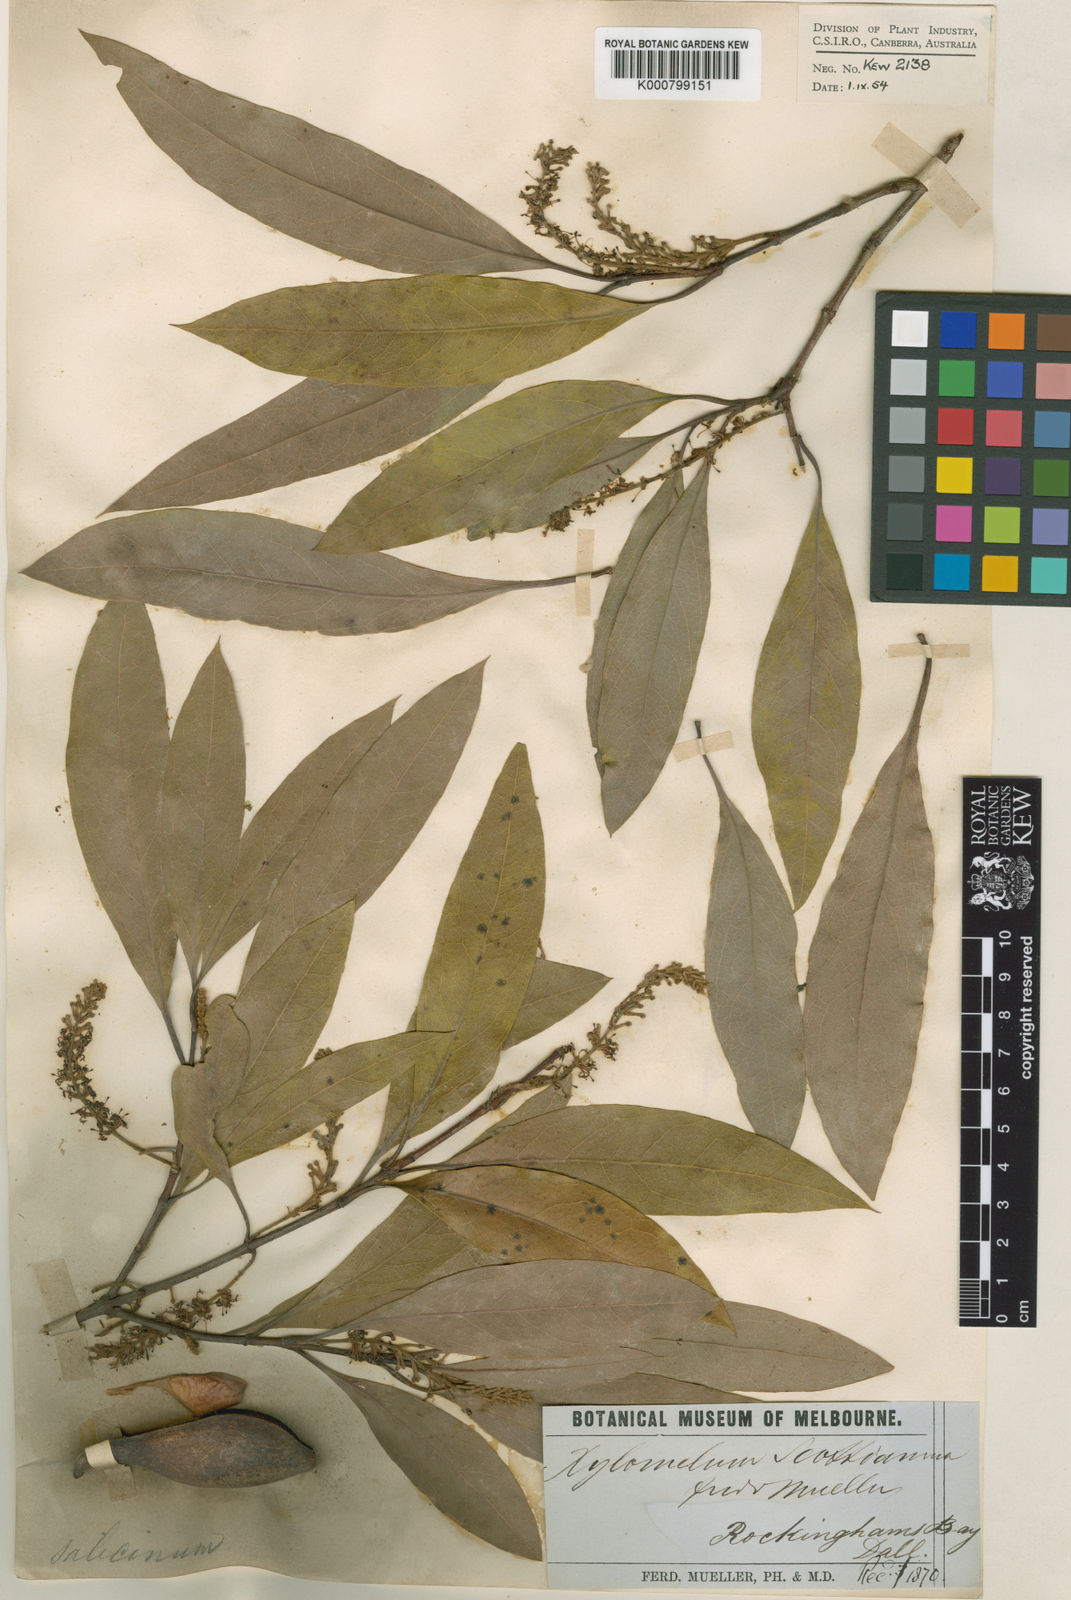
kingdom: Plantae
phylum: Tracheophyta
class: Magnoliopsida
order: Proteales
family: Proteaceae
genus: Xylomelum
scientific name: Xylomelum scottianum
